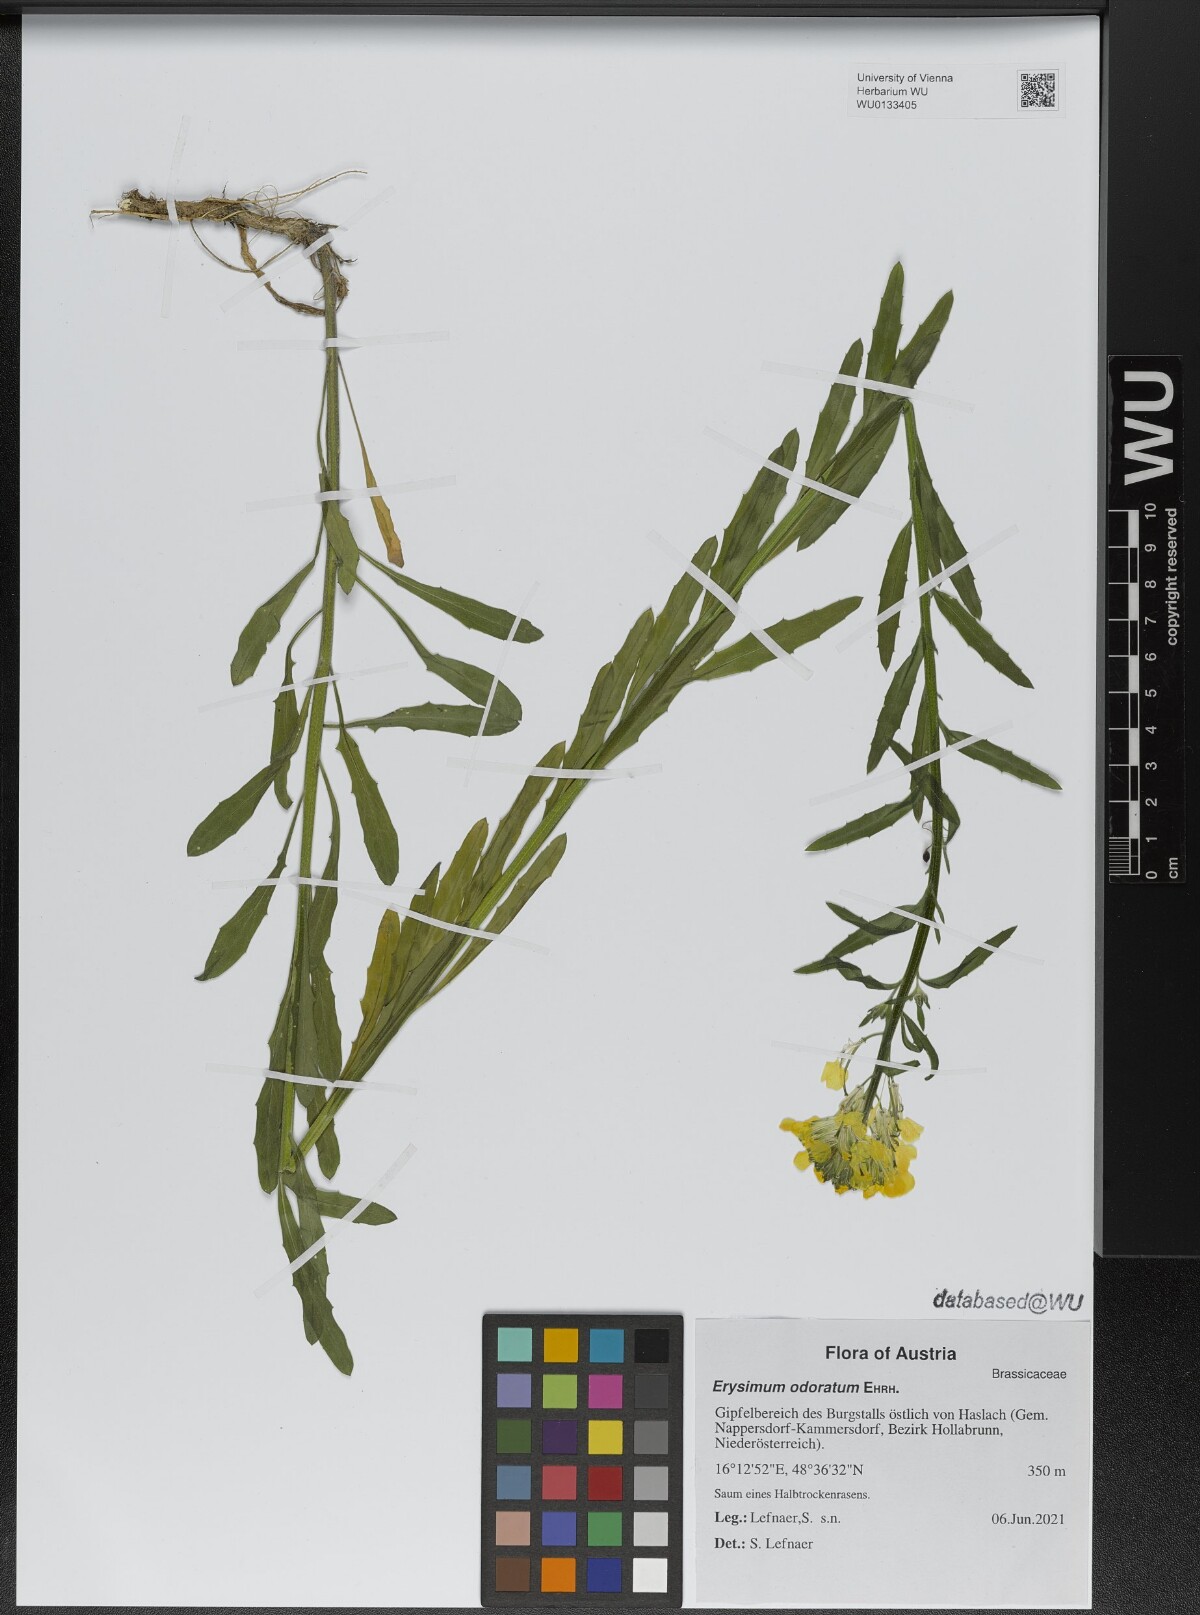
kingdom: Plantae
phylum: Tracheophyta
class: Magnoliopsida
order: Brassicales
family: Brassicaceae
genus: Erysimum
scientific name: Erysimum odoratum
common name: Smelly wallflower
